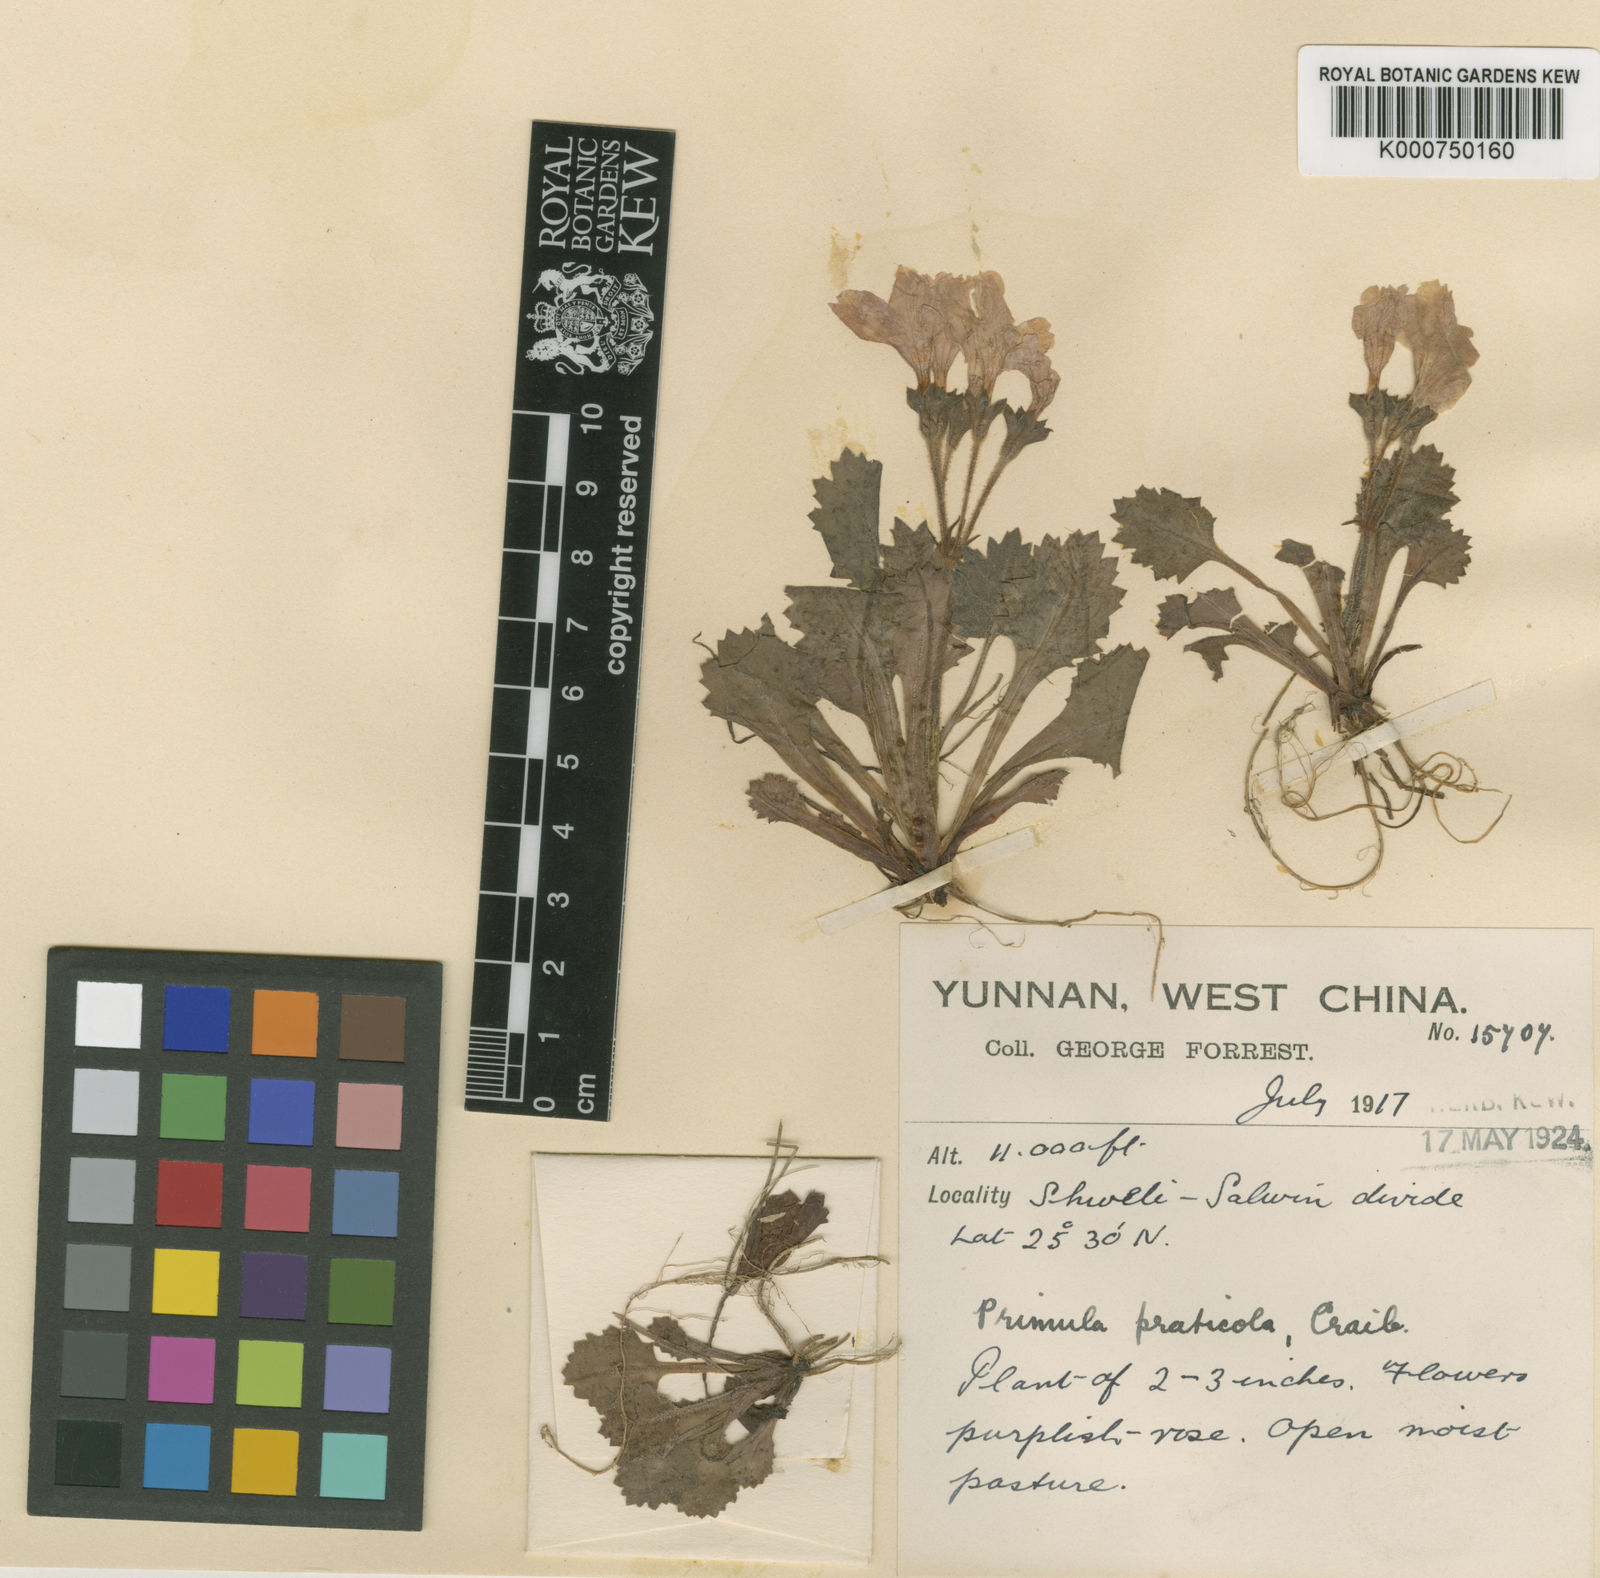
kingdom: Plantae
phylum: Tracheophyta
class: Magnoliopsida
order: Ericales
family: Primulaceae
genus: Primula
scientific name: Primula taliensis
